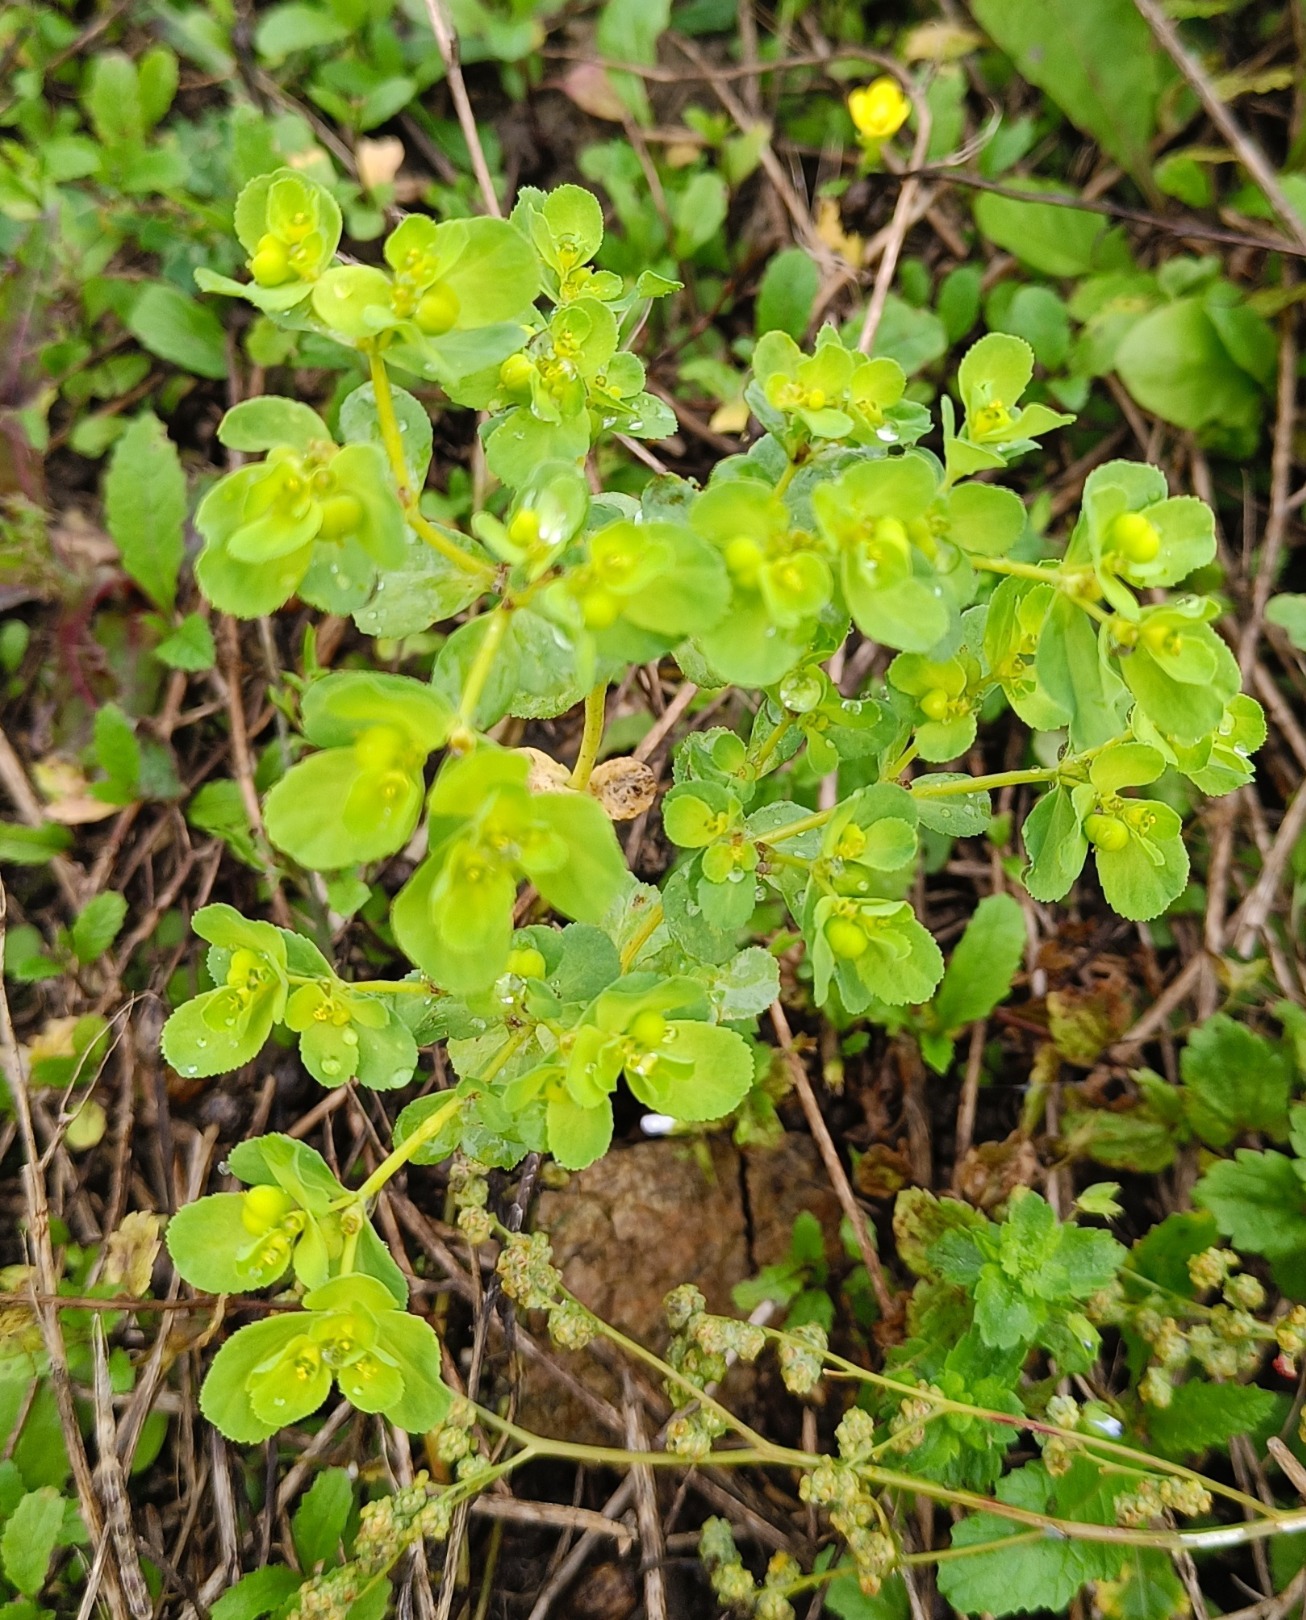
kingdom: Plantae
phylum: Tracheophyta
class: Magnoliopsida
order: Malpighiales
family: Euphorbiaceae
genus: Euphorbia
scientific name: Euphorbia helioscopia
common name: Skærm-vortemælk
